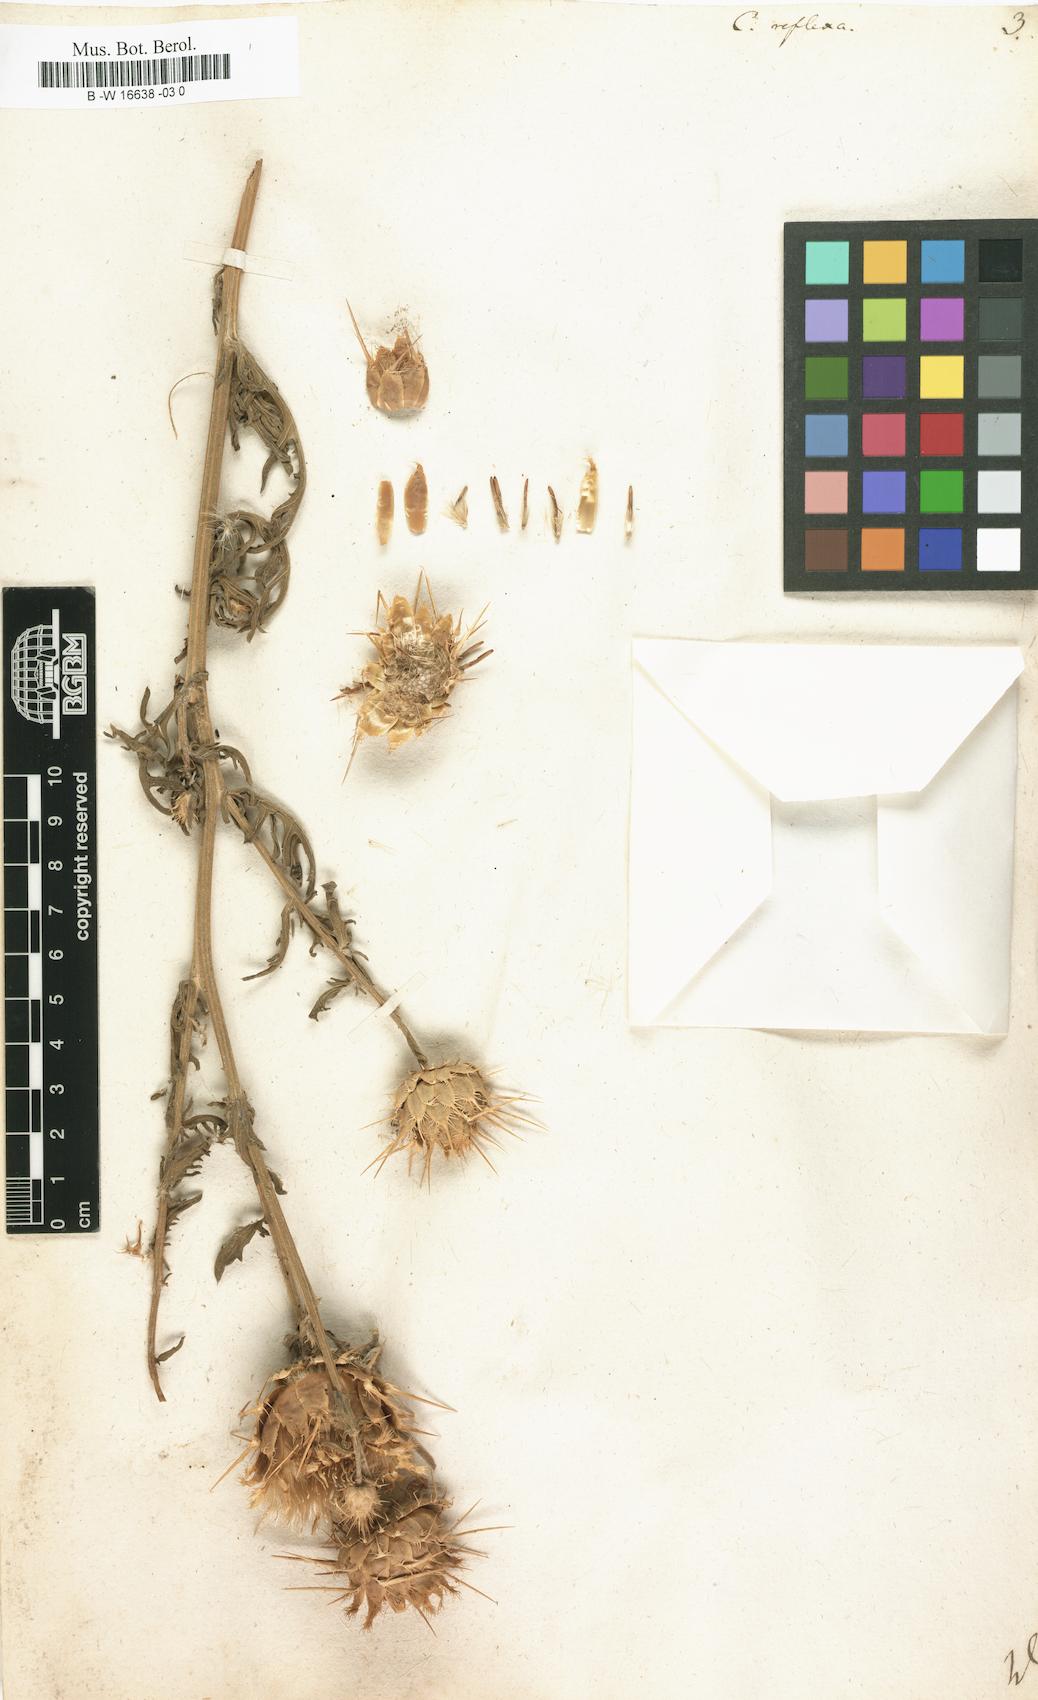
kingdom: Plantae
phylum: Tracheophyta
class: Magnoliopsida
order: Asterales
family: Asteraceae
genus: Centaurea
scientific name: Centaurea reflexa
